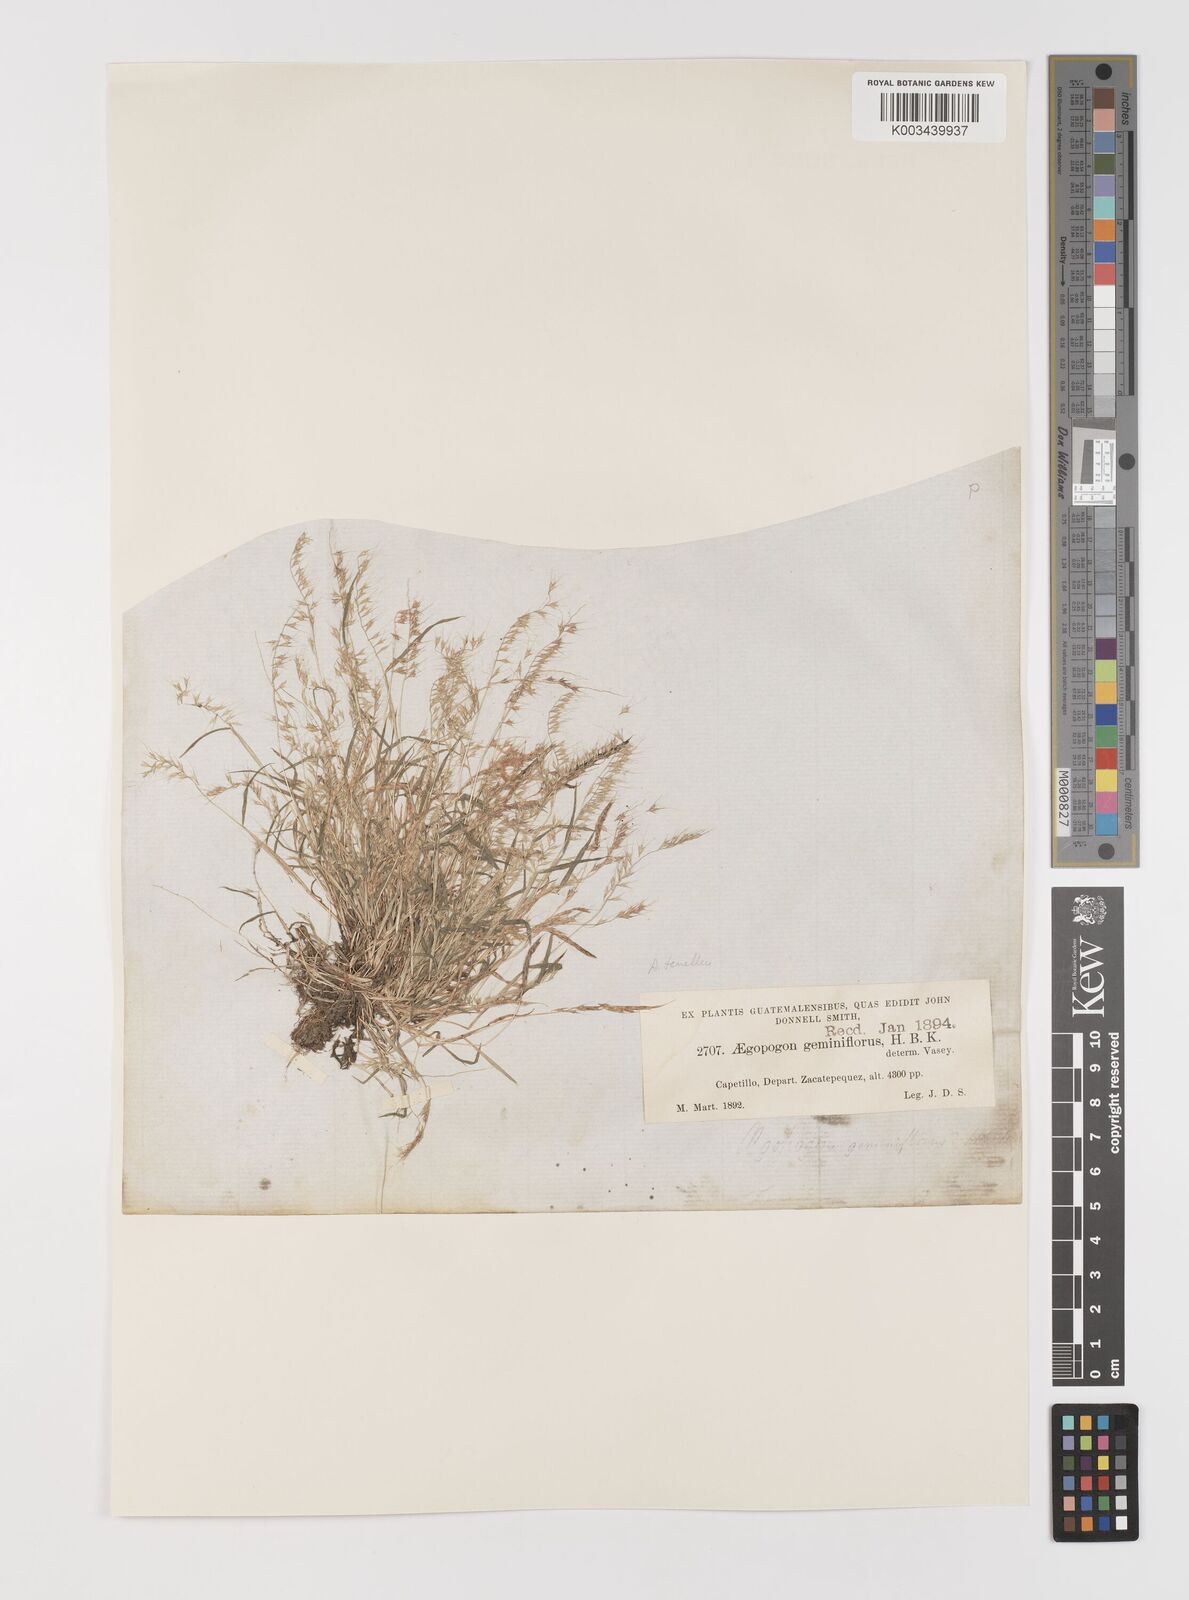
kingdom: Plantae
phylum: Tracheophyta
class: Liliopsida
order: Poales
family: Poaceae
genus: Muhlenbergia
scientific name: Muhlenbergia uniseta
